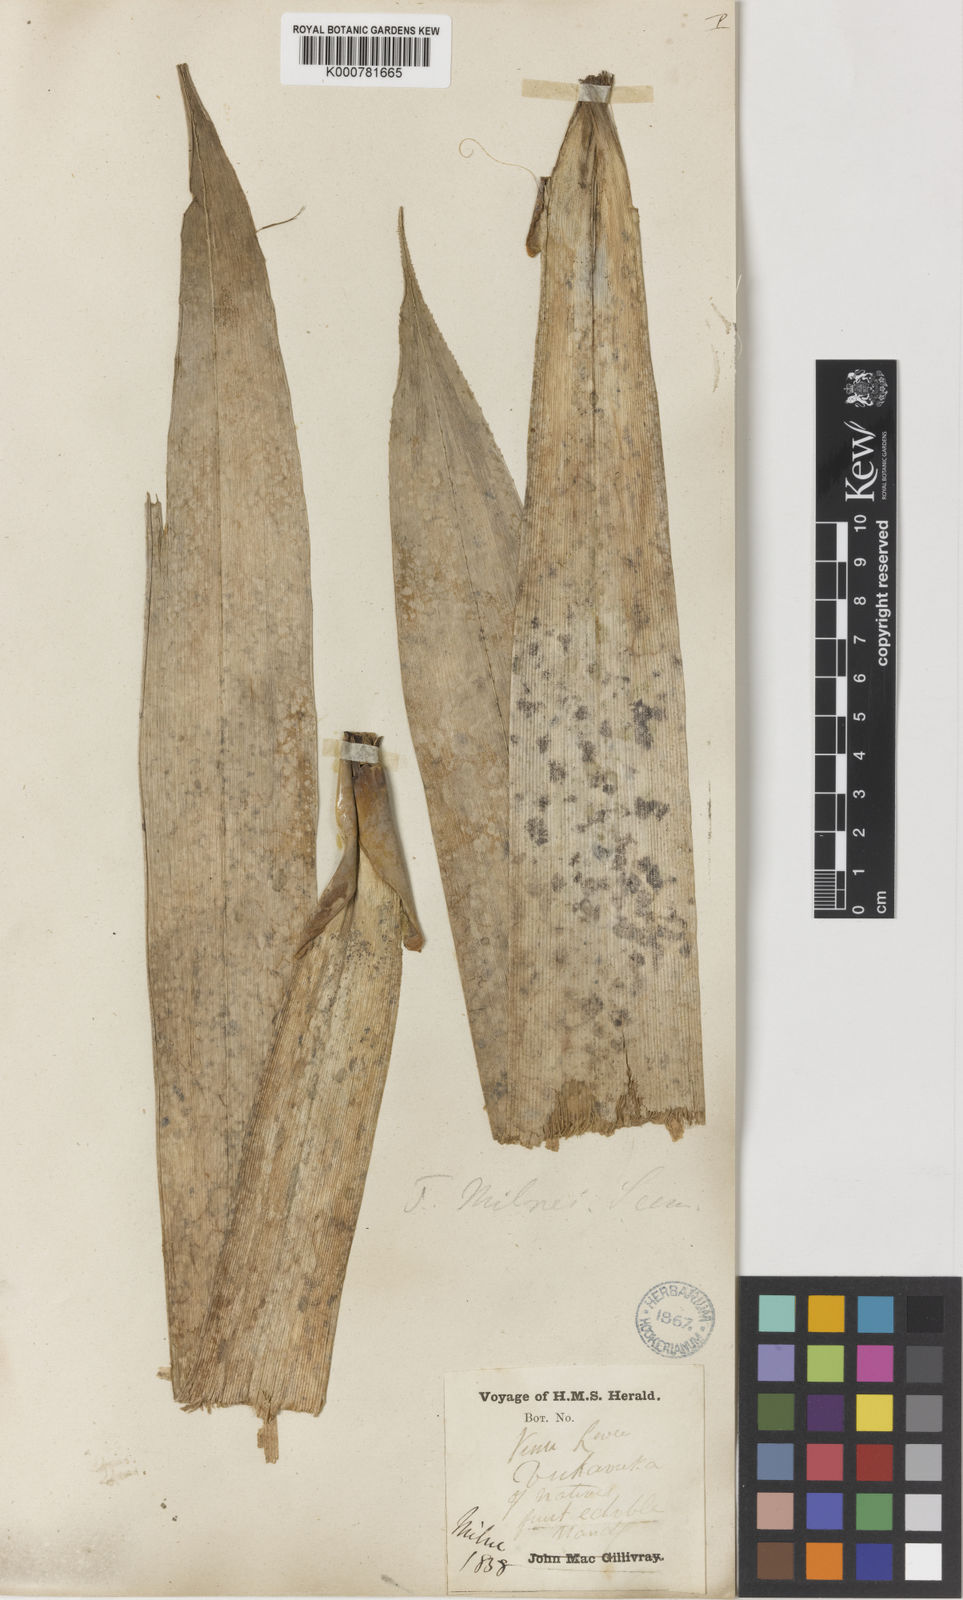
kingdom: Plantae
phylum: Tracheophyta
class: Liliopsida
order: Pandanales
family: Pandanaceae
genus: Freycinetia
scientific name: Freycinetia urvilleana
